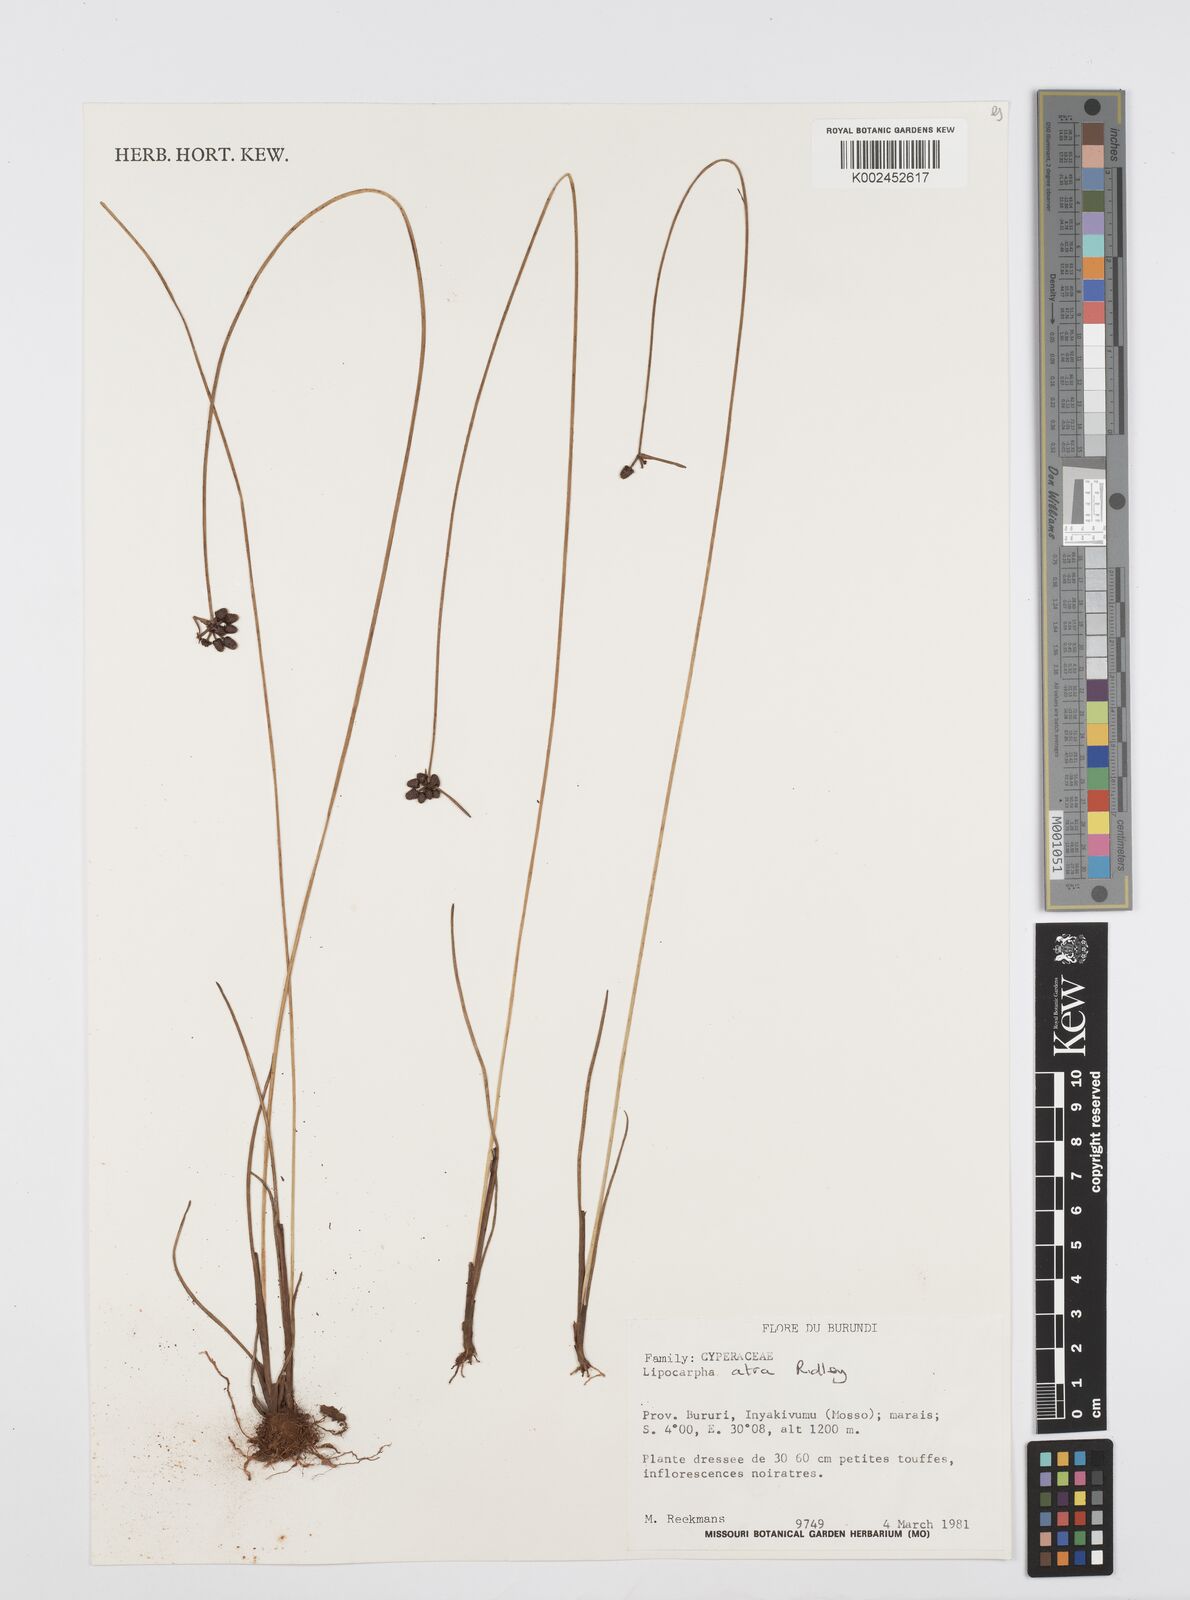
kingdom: Plantae
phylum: Tracheophyta
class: Liliopsida
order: Poales
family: Cyperaceae
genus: Cyperus
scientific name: Cyperus lipoater
